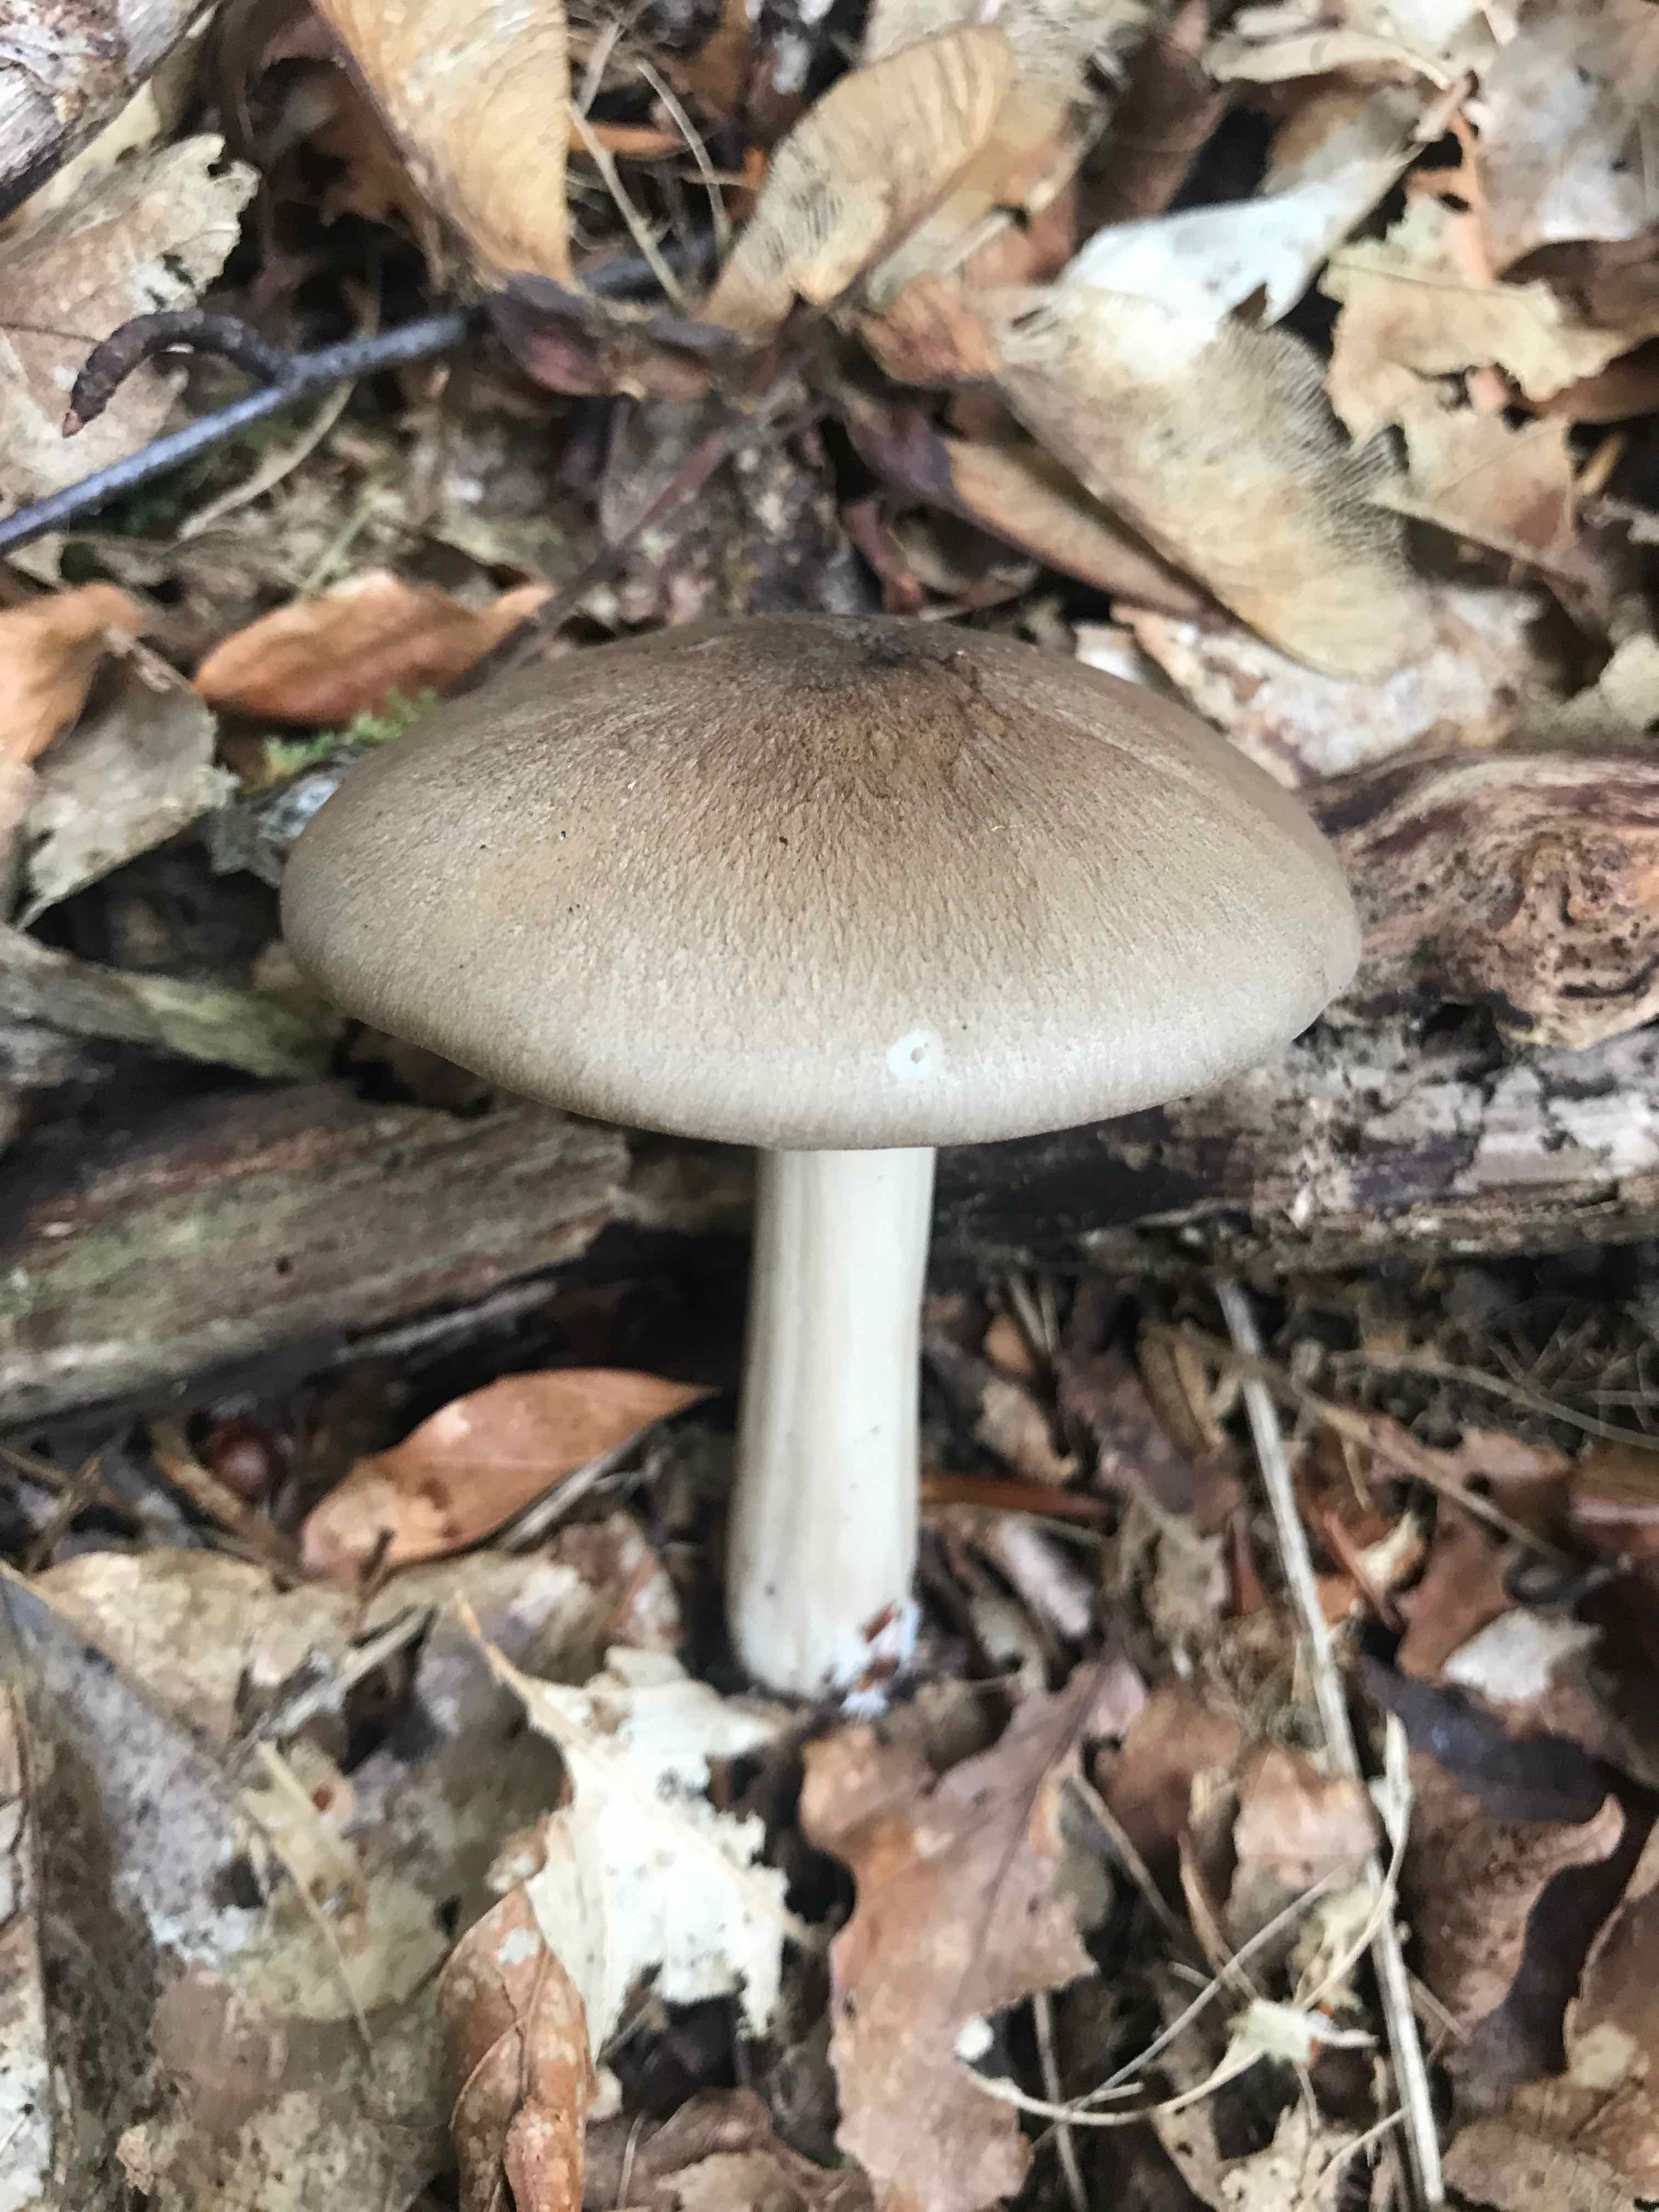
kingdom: Fungi
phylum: Basidiomycota
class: Agaricomycetes
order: Agaricales
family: Tricholomataceae
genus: Megacollybia
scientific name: Megacollybia platyphylla
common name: bredbladet væbnerhat
